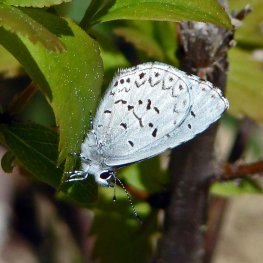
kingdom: Animalia
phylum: Arthropoda
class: Insecta
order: Lepidoptera
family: Lycaenidae
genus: Celastrina
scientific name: Celastrina lucia
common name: Northern Spring Azure
